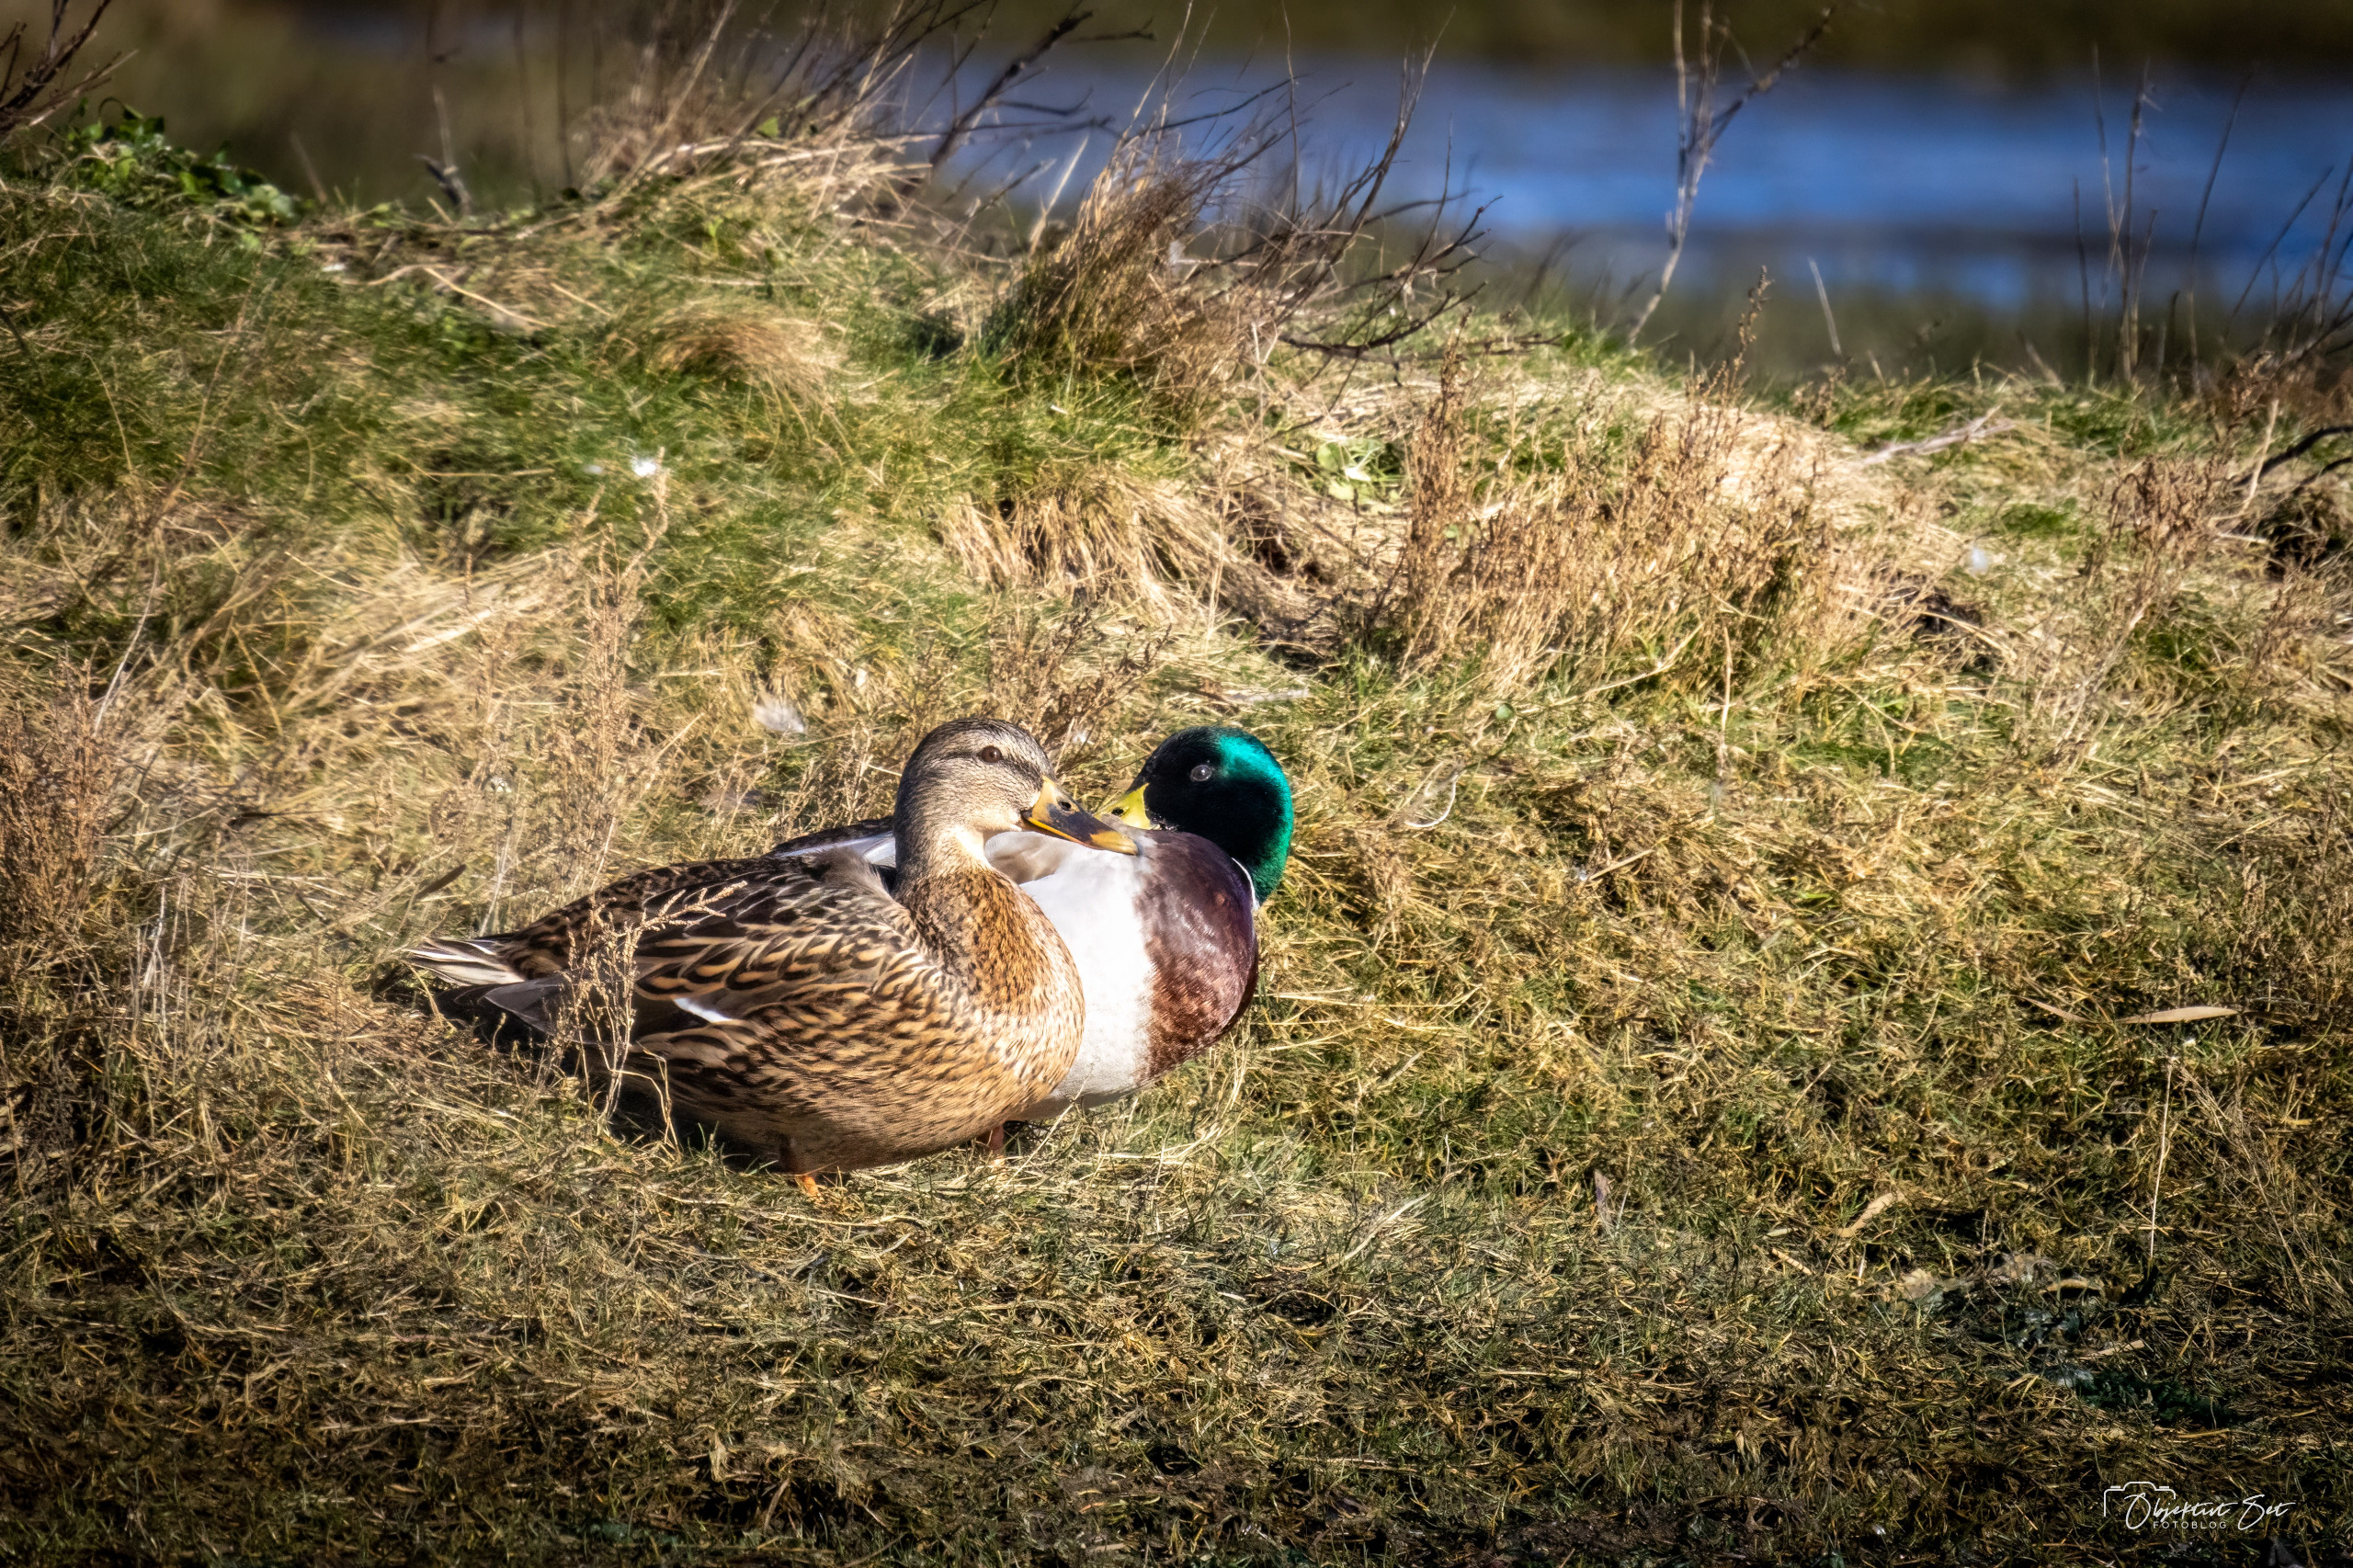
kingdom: Animalia
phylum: Chordata
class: Aves
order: Anseriformes
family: Anatidae
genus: Anas
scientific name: Anas platyrhynchos
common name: Gråand
